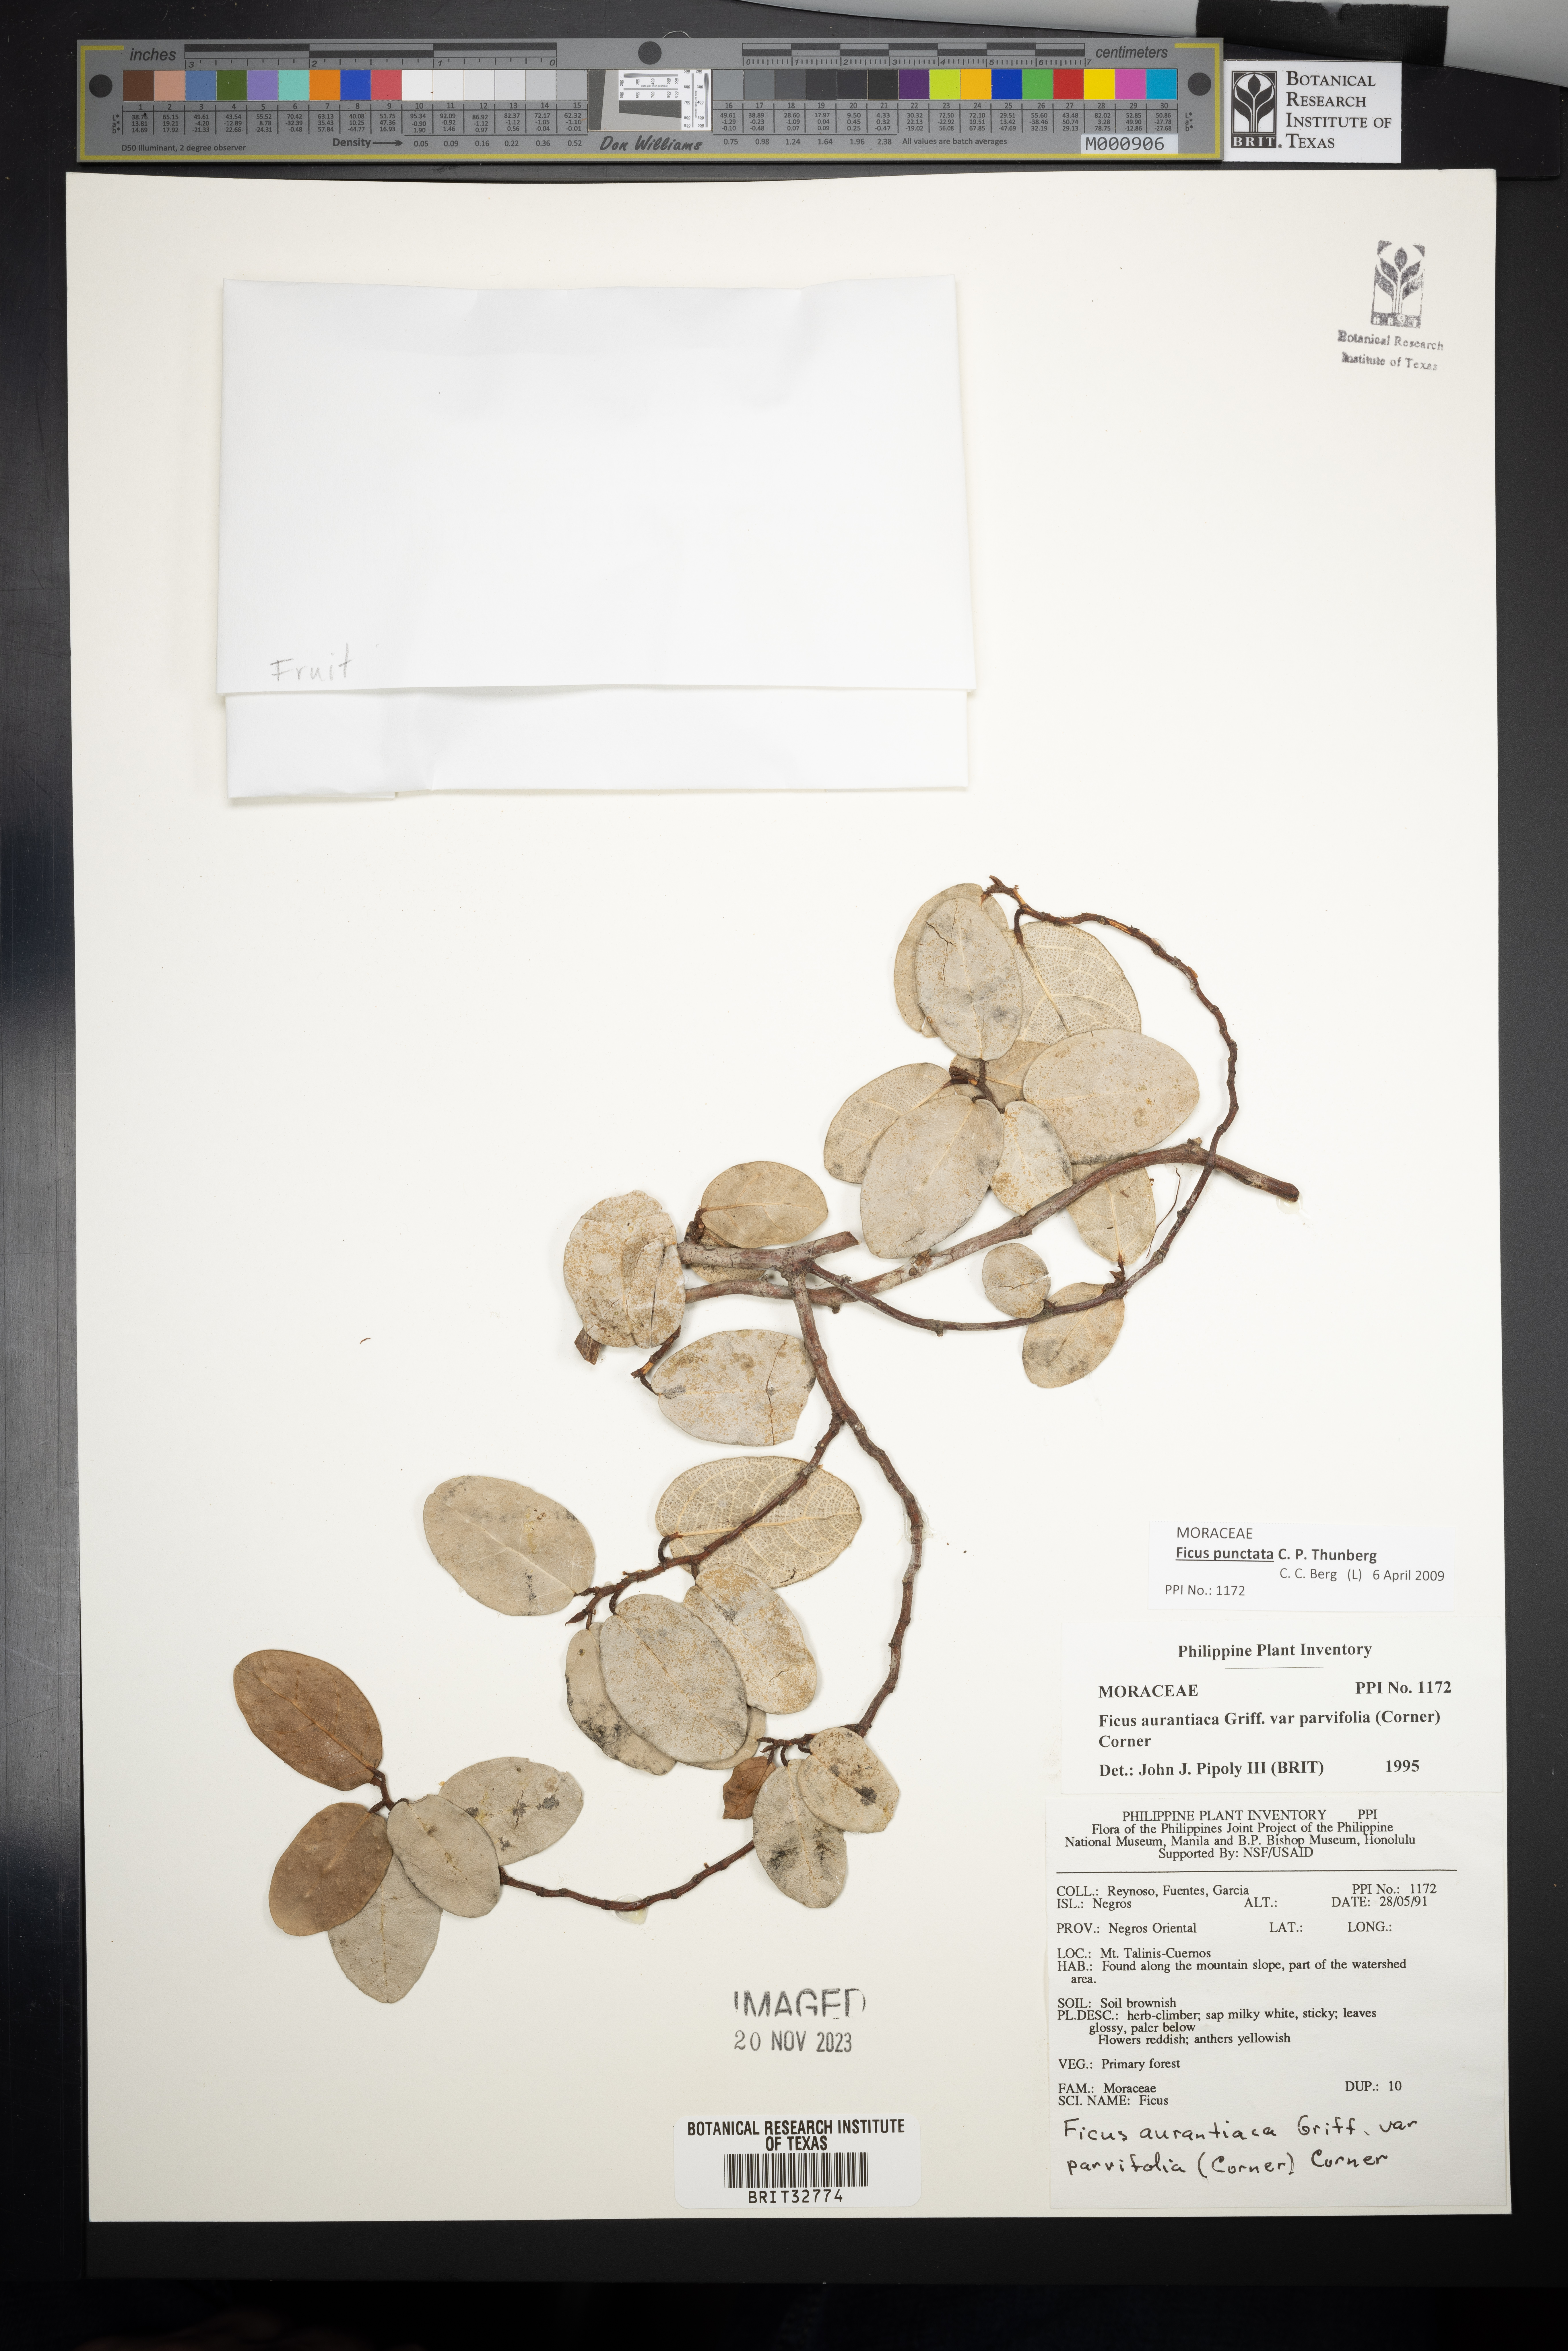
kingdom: Plantae
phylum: Tracheophyta
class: Magnoliopsida
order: Rosales
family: Moraceae
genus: Ficus
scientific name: Ficus punctata
